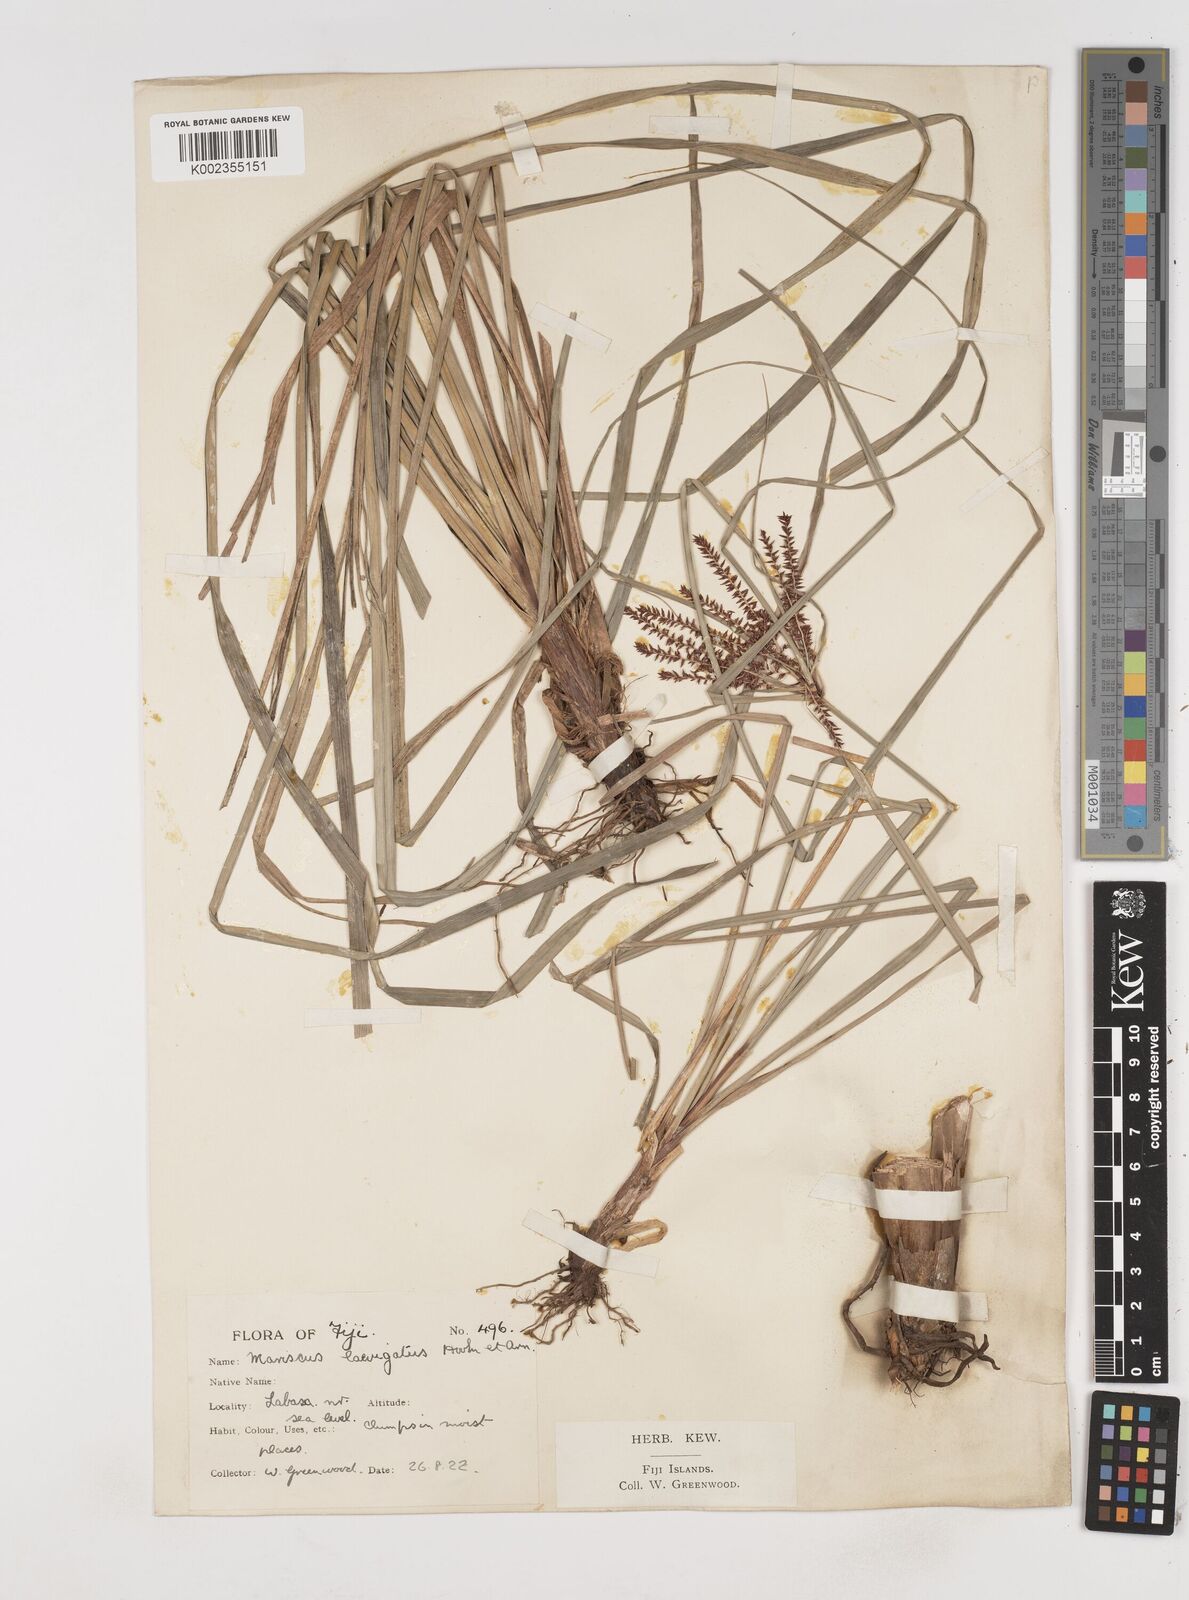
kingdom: Plantae
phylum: Tracheophyta
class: Liliopsida
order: Poales
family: Cyperaceae
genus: Cyperus
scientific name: Cyperus seemannianus
